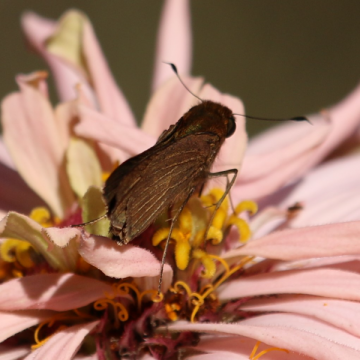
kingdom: Animalia
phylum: Arthropoda
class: Insecta
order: Lepidoptera
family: Hesperiidae
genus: Panoquina
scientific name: Panoquina ocola
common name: Ocola Skipper
